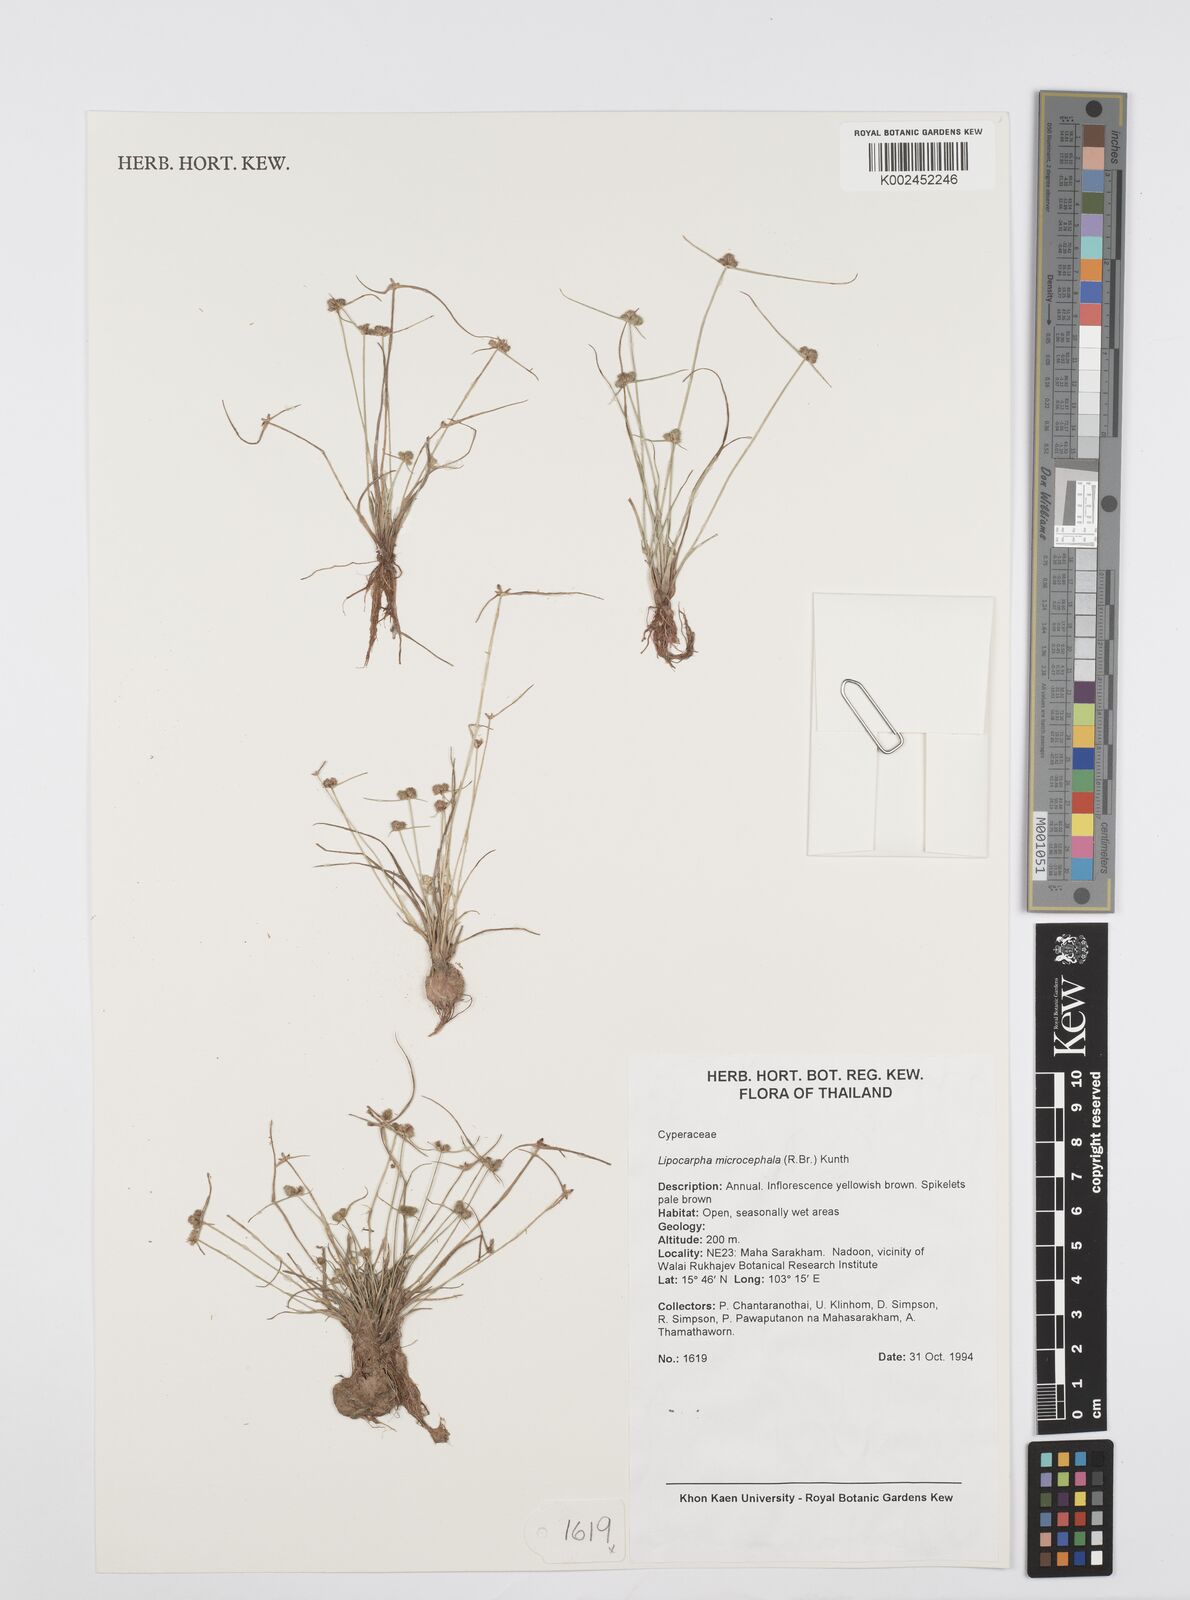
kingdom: Plantae
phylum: Tracheophyta
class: Liliopsida
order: Poales
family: Cyperaceae
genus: Cyperus
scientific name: Cyperus microcephalus
